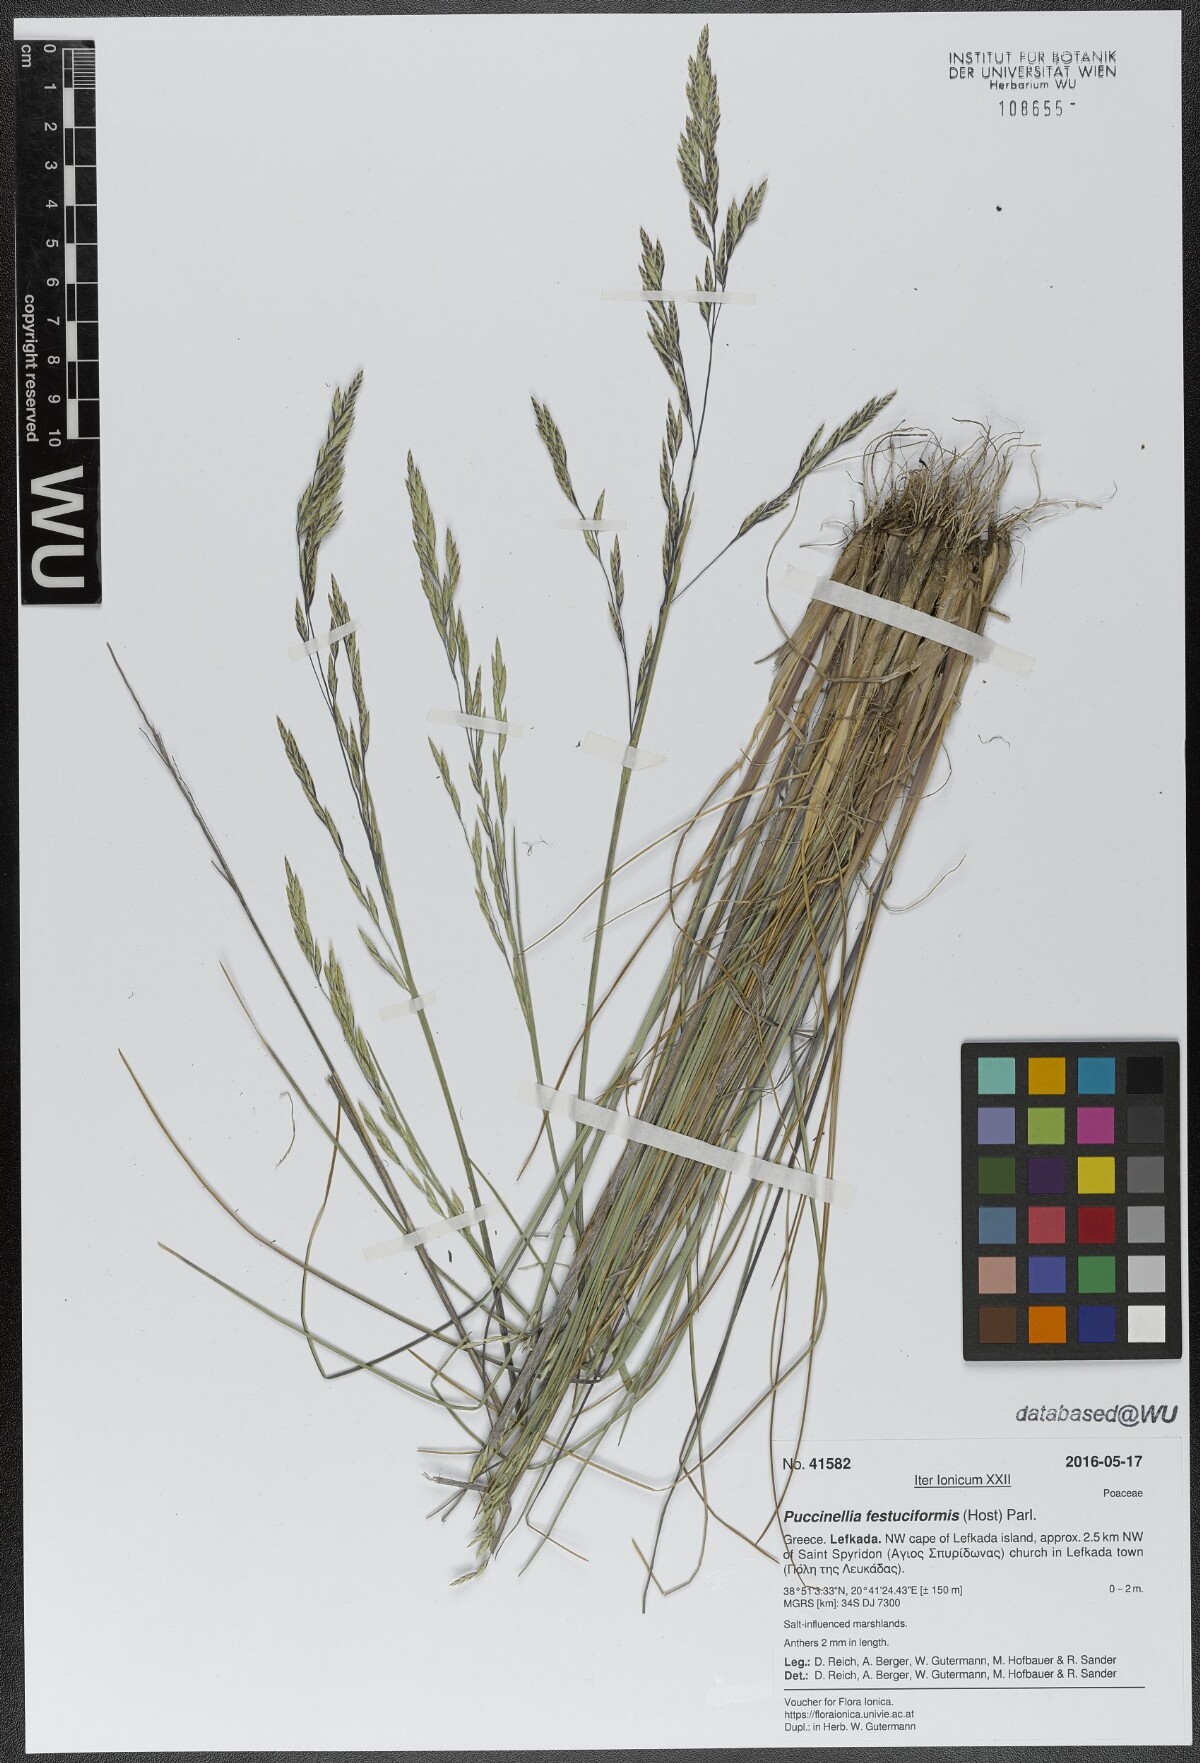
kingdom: Plantae
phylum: Tracheophyta
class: Liliopsida
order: Poales
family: Poaceae
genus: Puccinellia
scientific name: Puccinellia festuciformis
